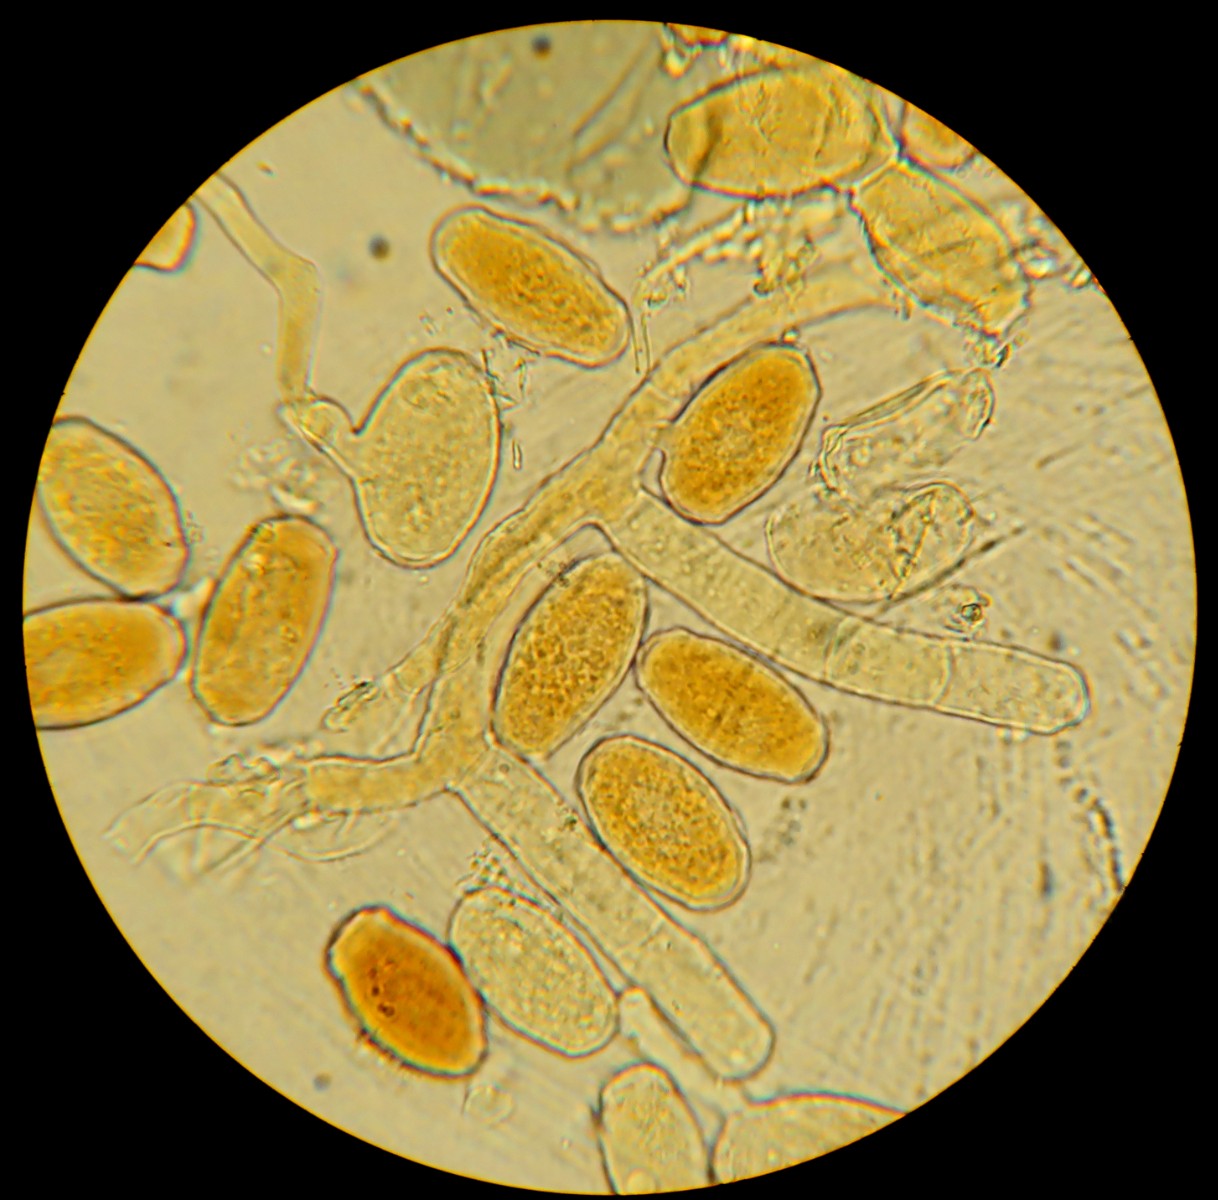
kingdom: Fungi
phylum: Ascomycota
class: Leotiomycetes
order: Helotiales
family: Erysiphaceae
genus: Neoerysiphe
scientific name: Neoerysiphe galeopsidis
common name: Mint mildew
